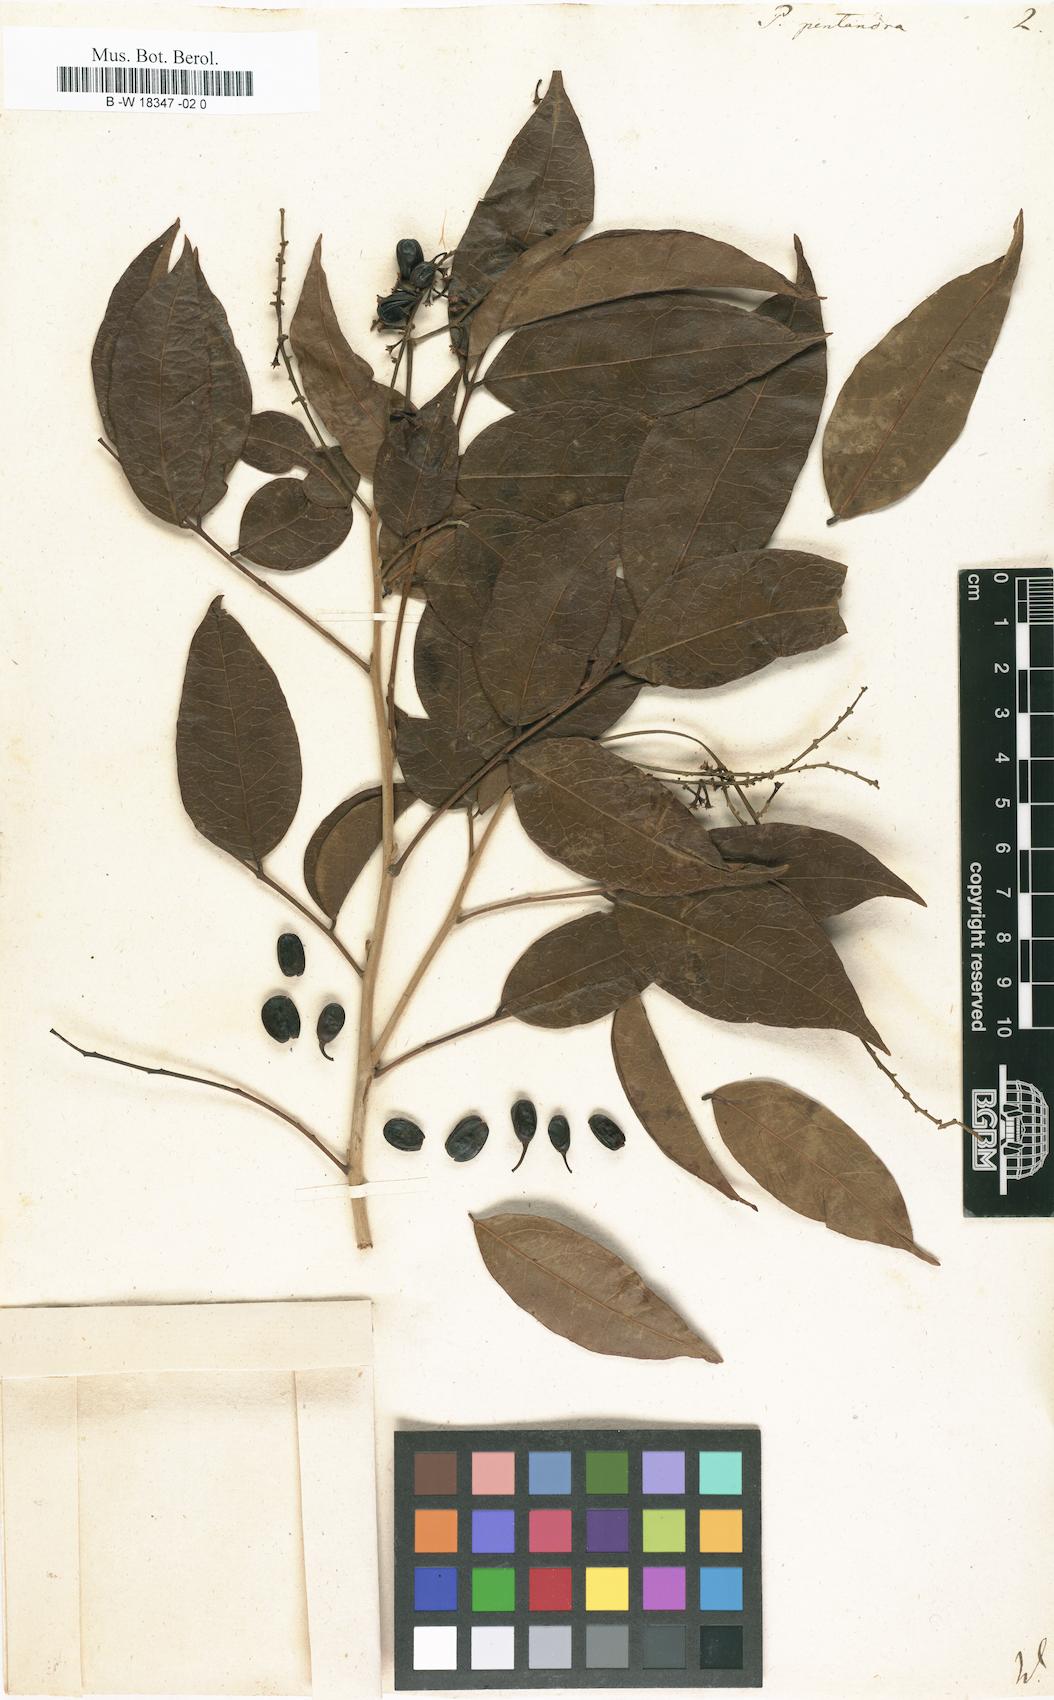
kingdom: Plantae
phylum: Tracheophyta
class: Magnoliopsida
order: Picramniales
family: Picramniaceae
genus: Picramnia
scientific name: Picramnia pentandra
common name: Florida bitterbush
